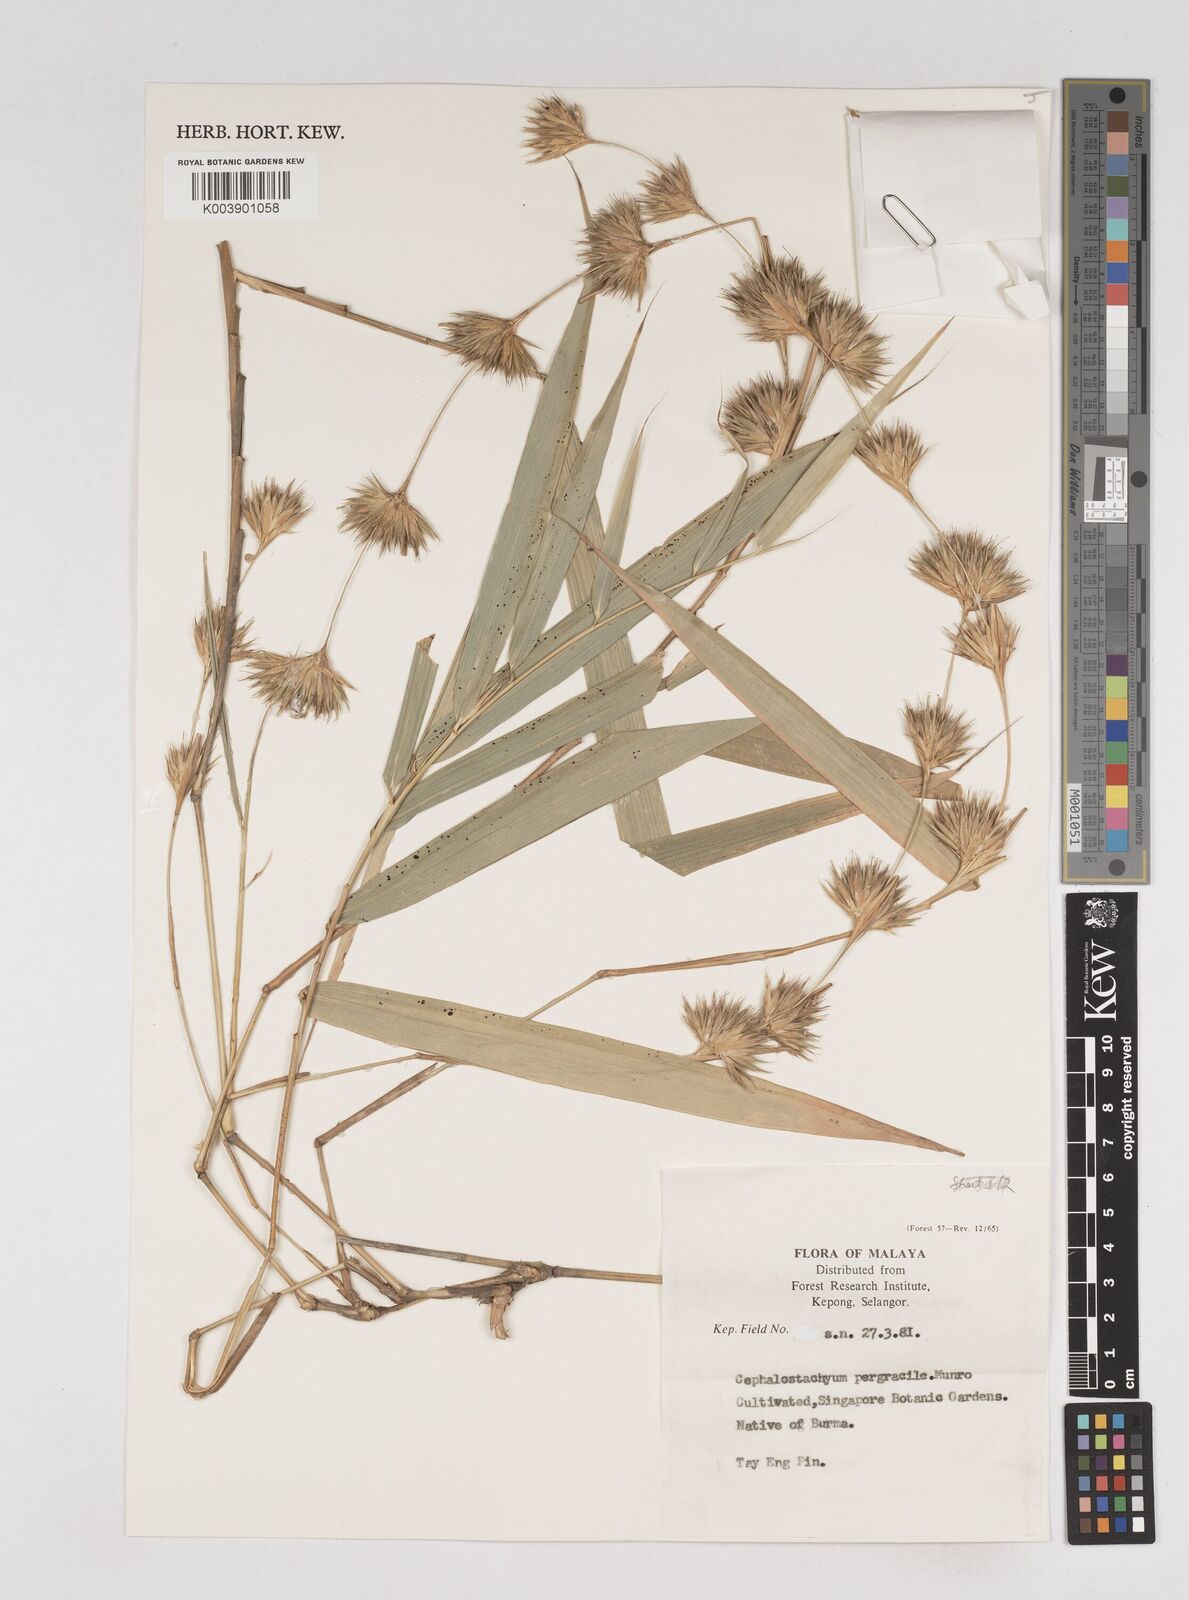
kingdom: Plantae
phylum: Tracheophyta
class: Liliopsida
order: Poales
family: Poaceae
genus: Schizostachyum
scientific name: Schizostachyum pergracile
